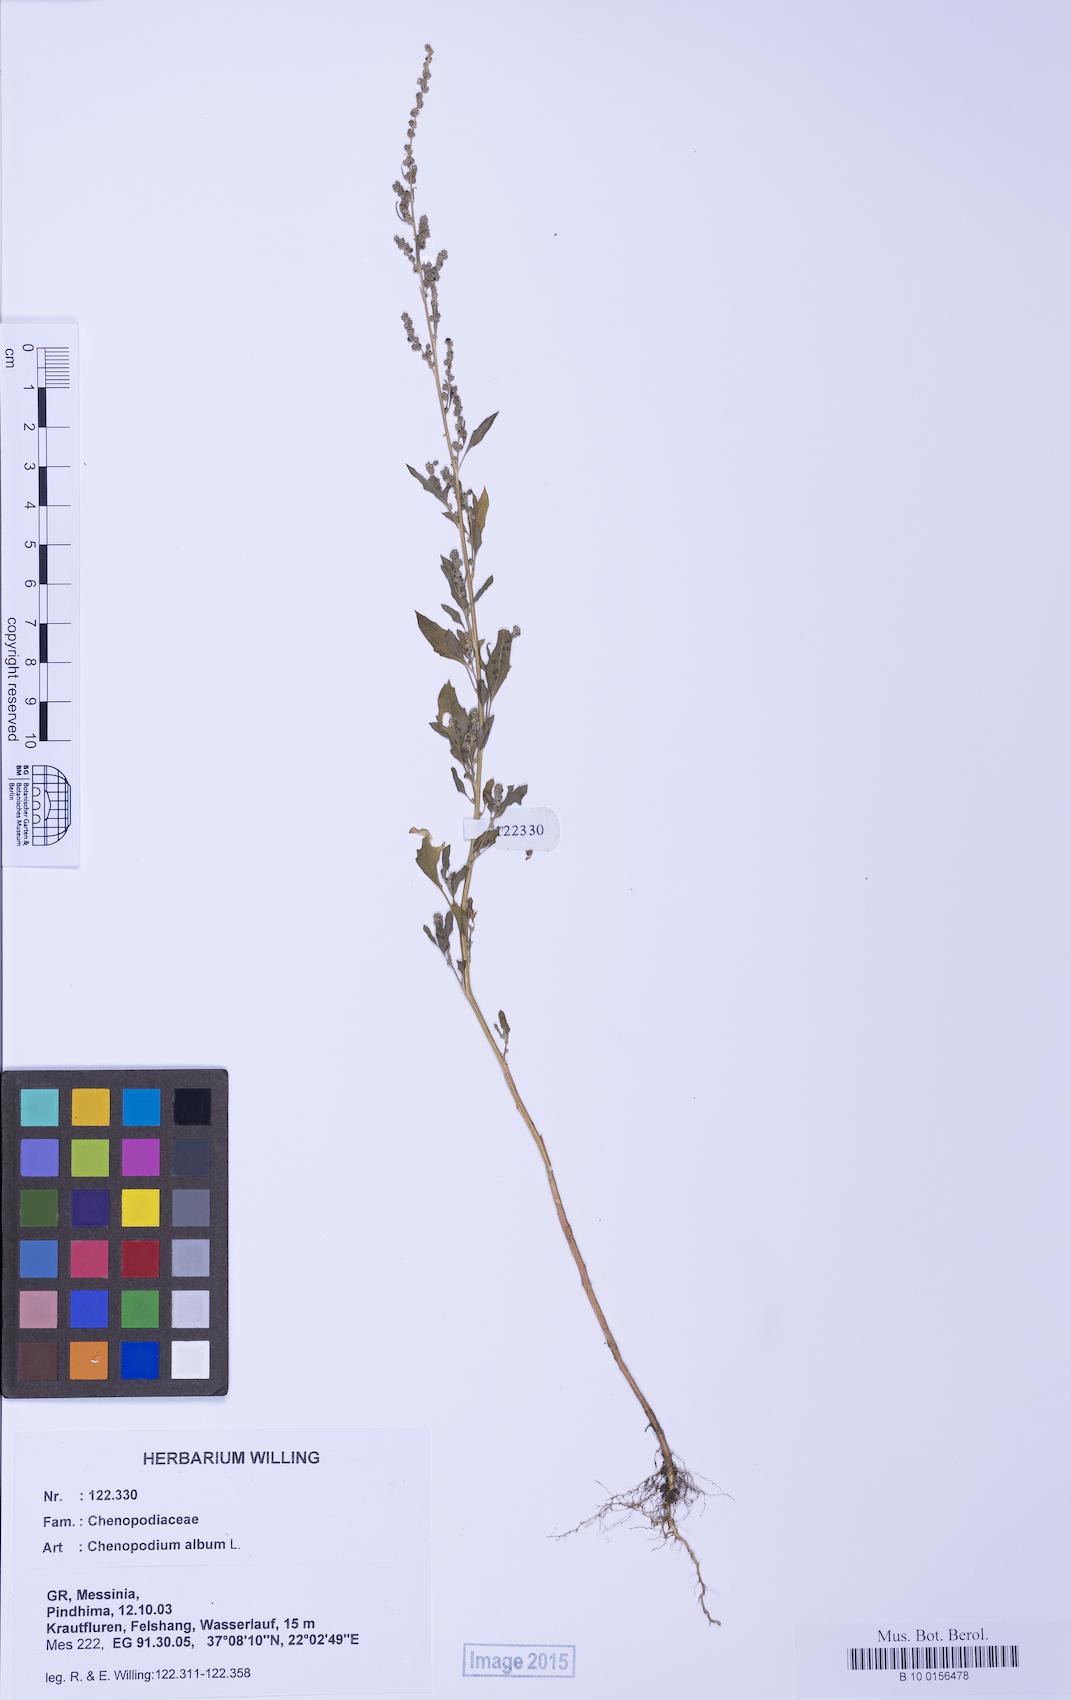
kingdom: Plantae
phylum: Tracheophyta
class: Magnoliopsida
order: Caryophyllales
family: Amaranthaceae
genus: Chenopodium
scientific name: Chenopodium album
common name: Fat-hen
